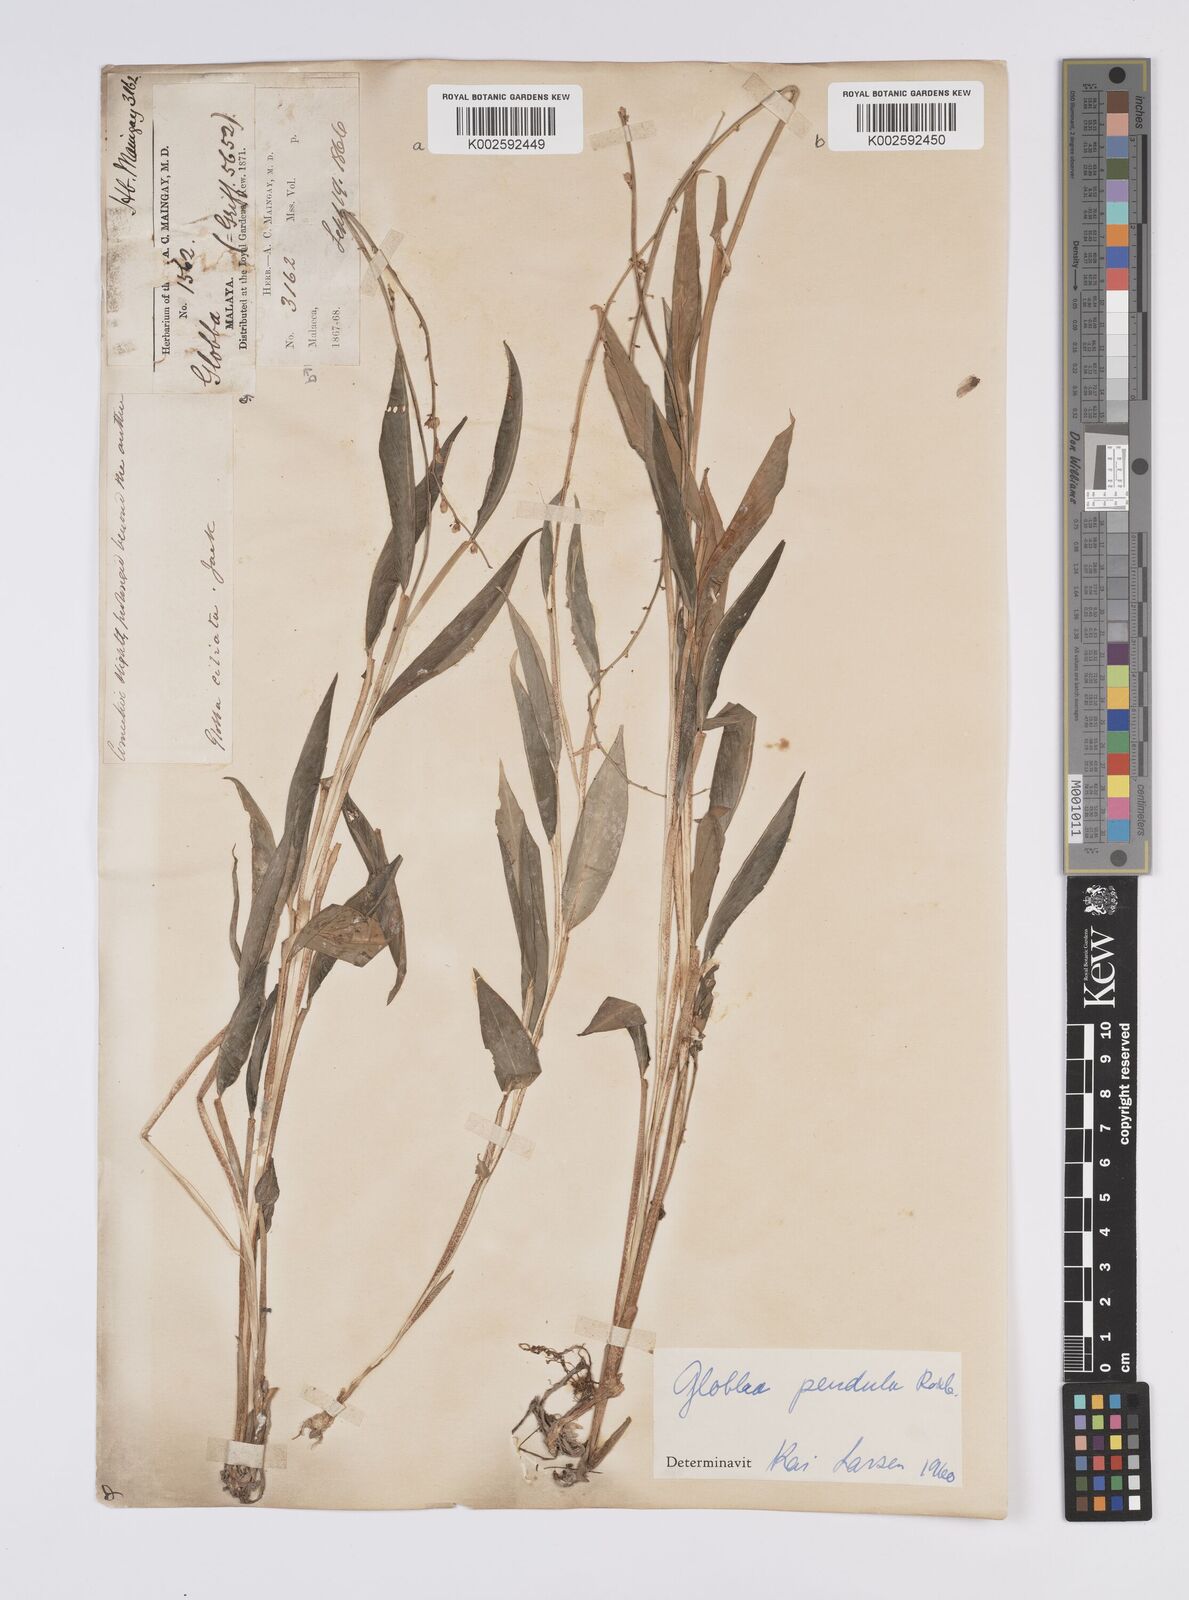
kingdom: Plantae
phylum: Tracheophyta
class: Liliopsida
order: Zingiberales
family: Zingiberaceae
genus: Globba
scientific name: Globba pendula
